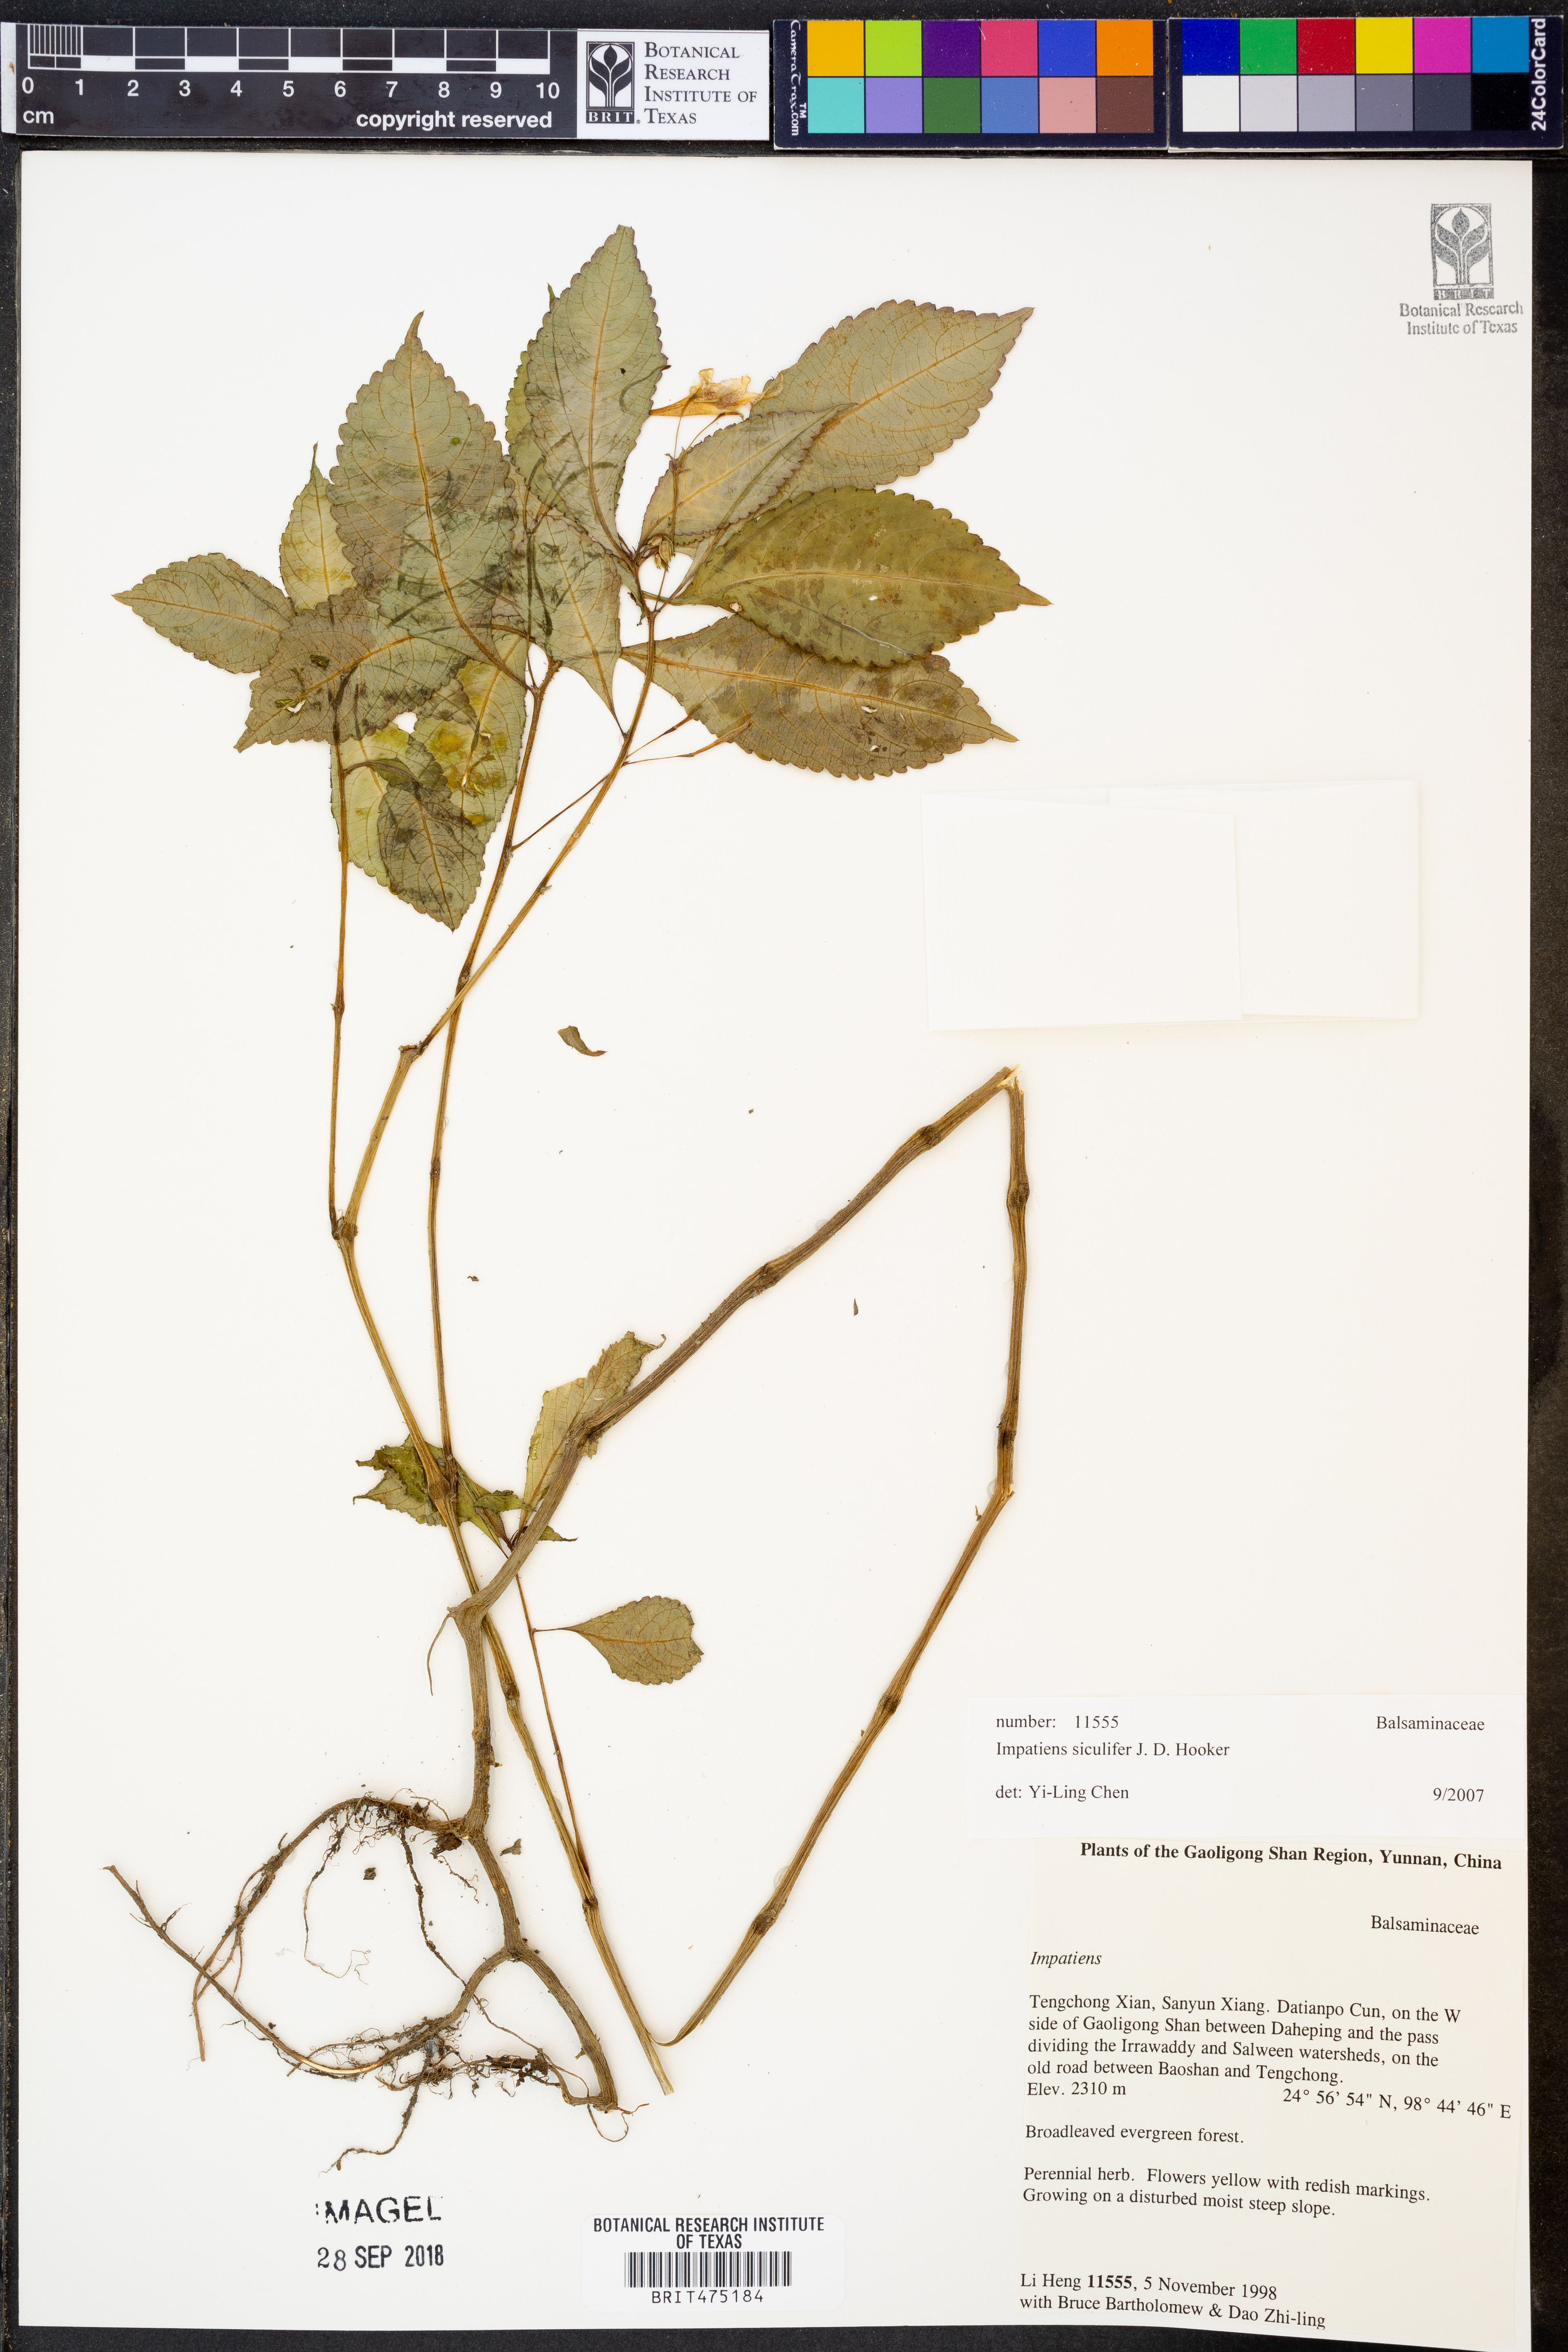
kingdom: Plantae
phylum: Tracheophyta
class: Magnoliopsida
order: Ericales
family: Balsaminaceae
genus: Impatiens
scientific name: Impatiens siculifer
